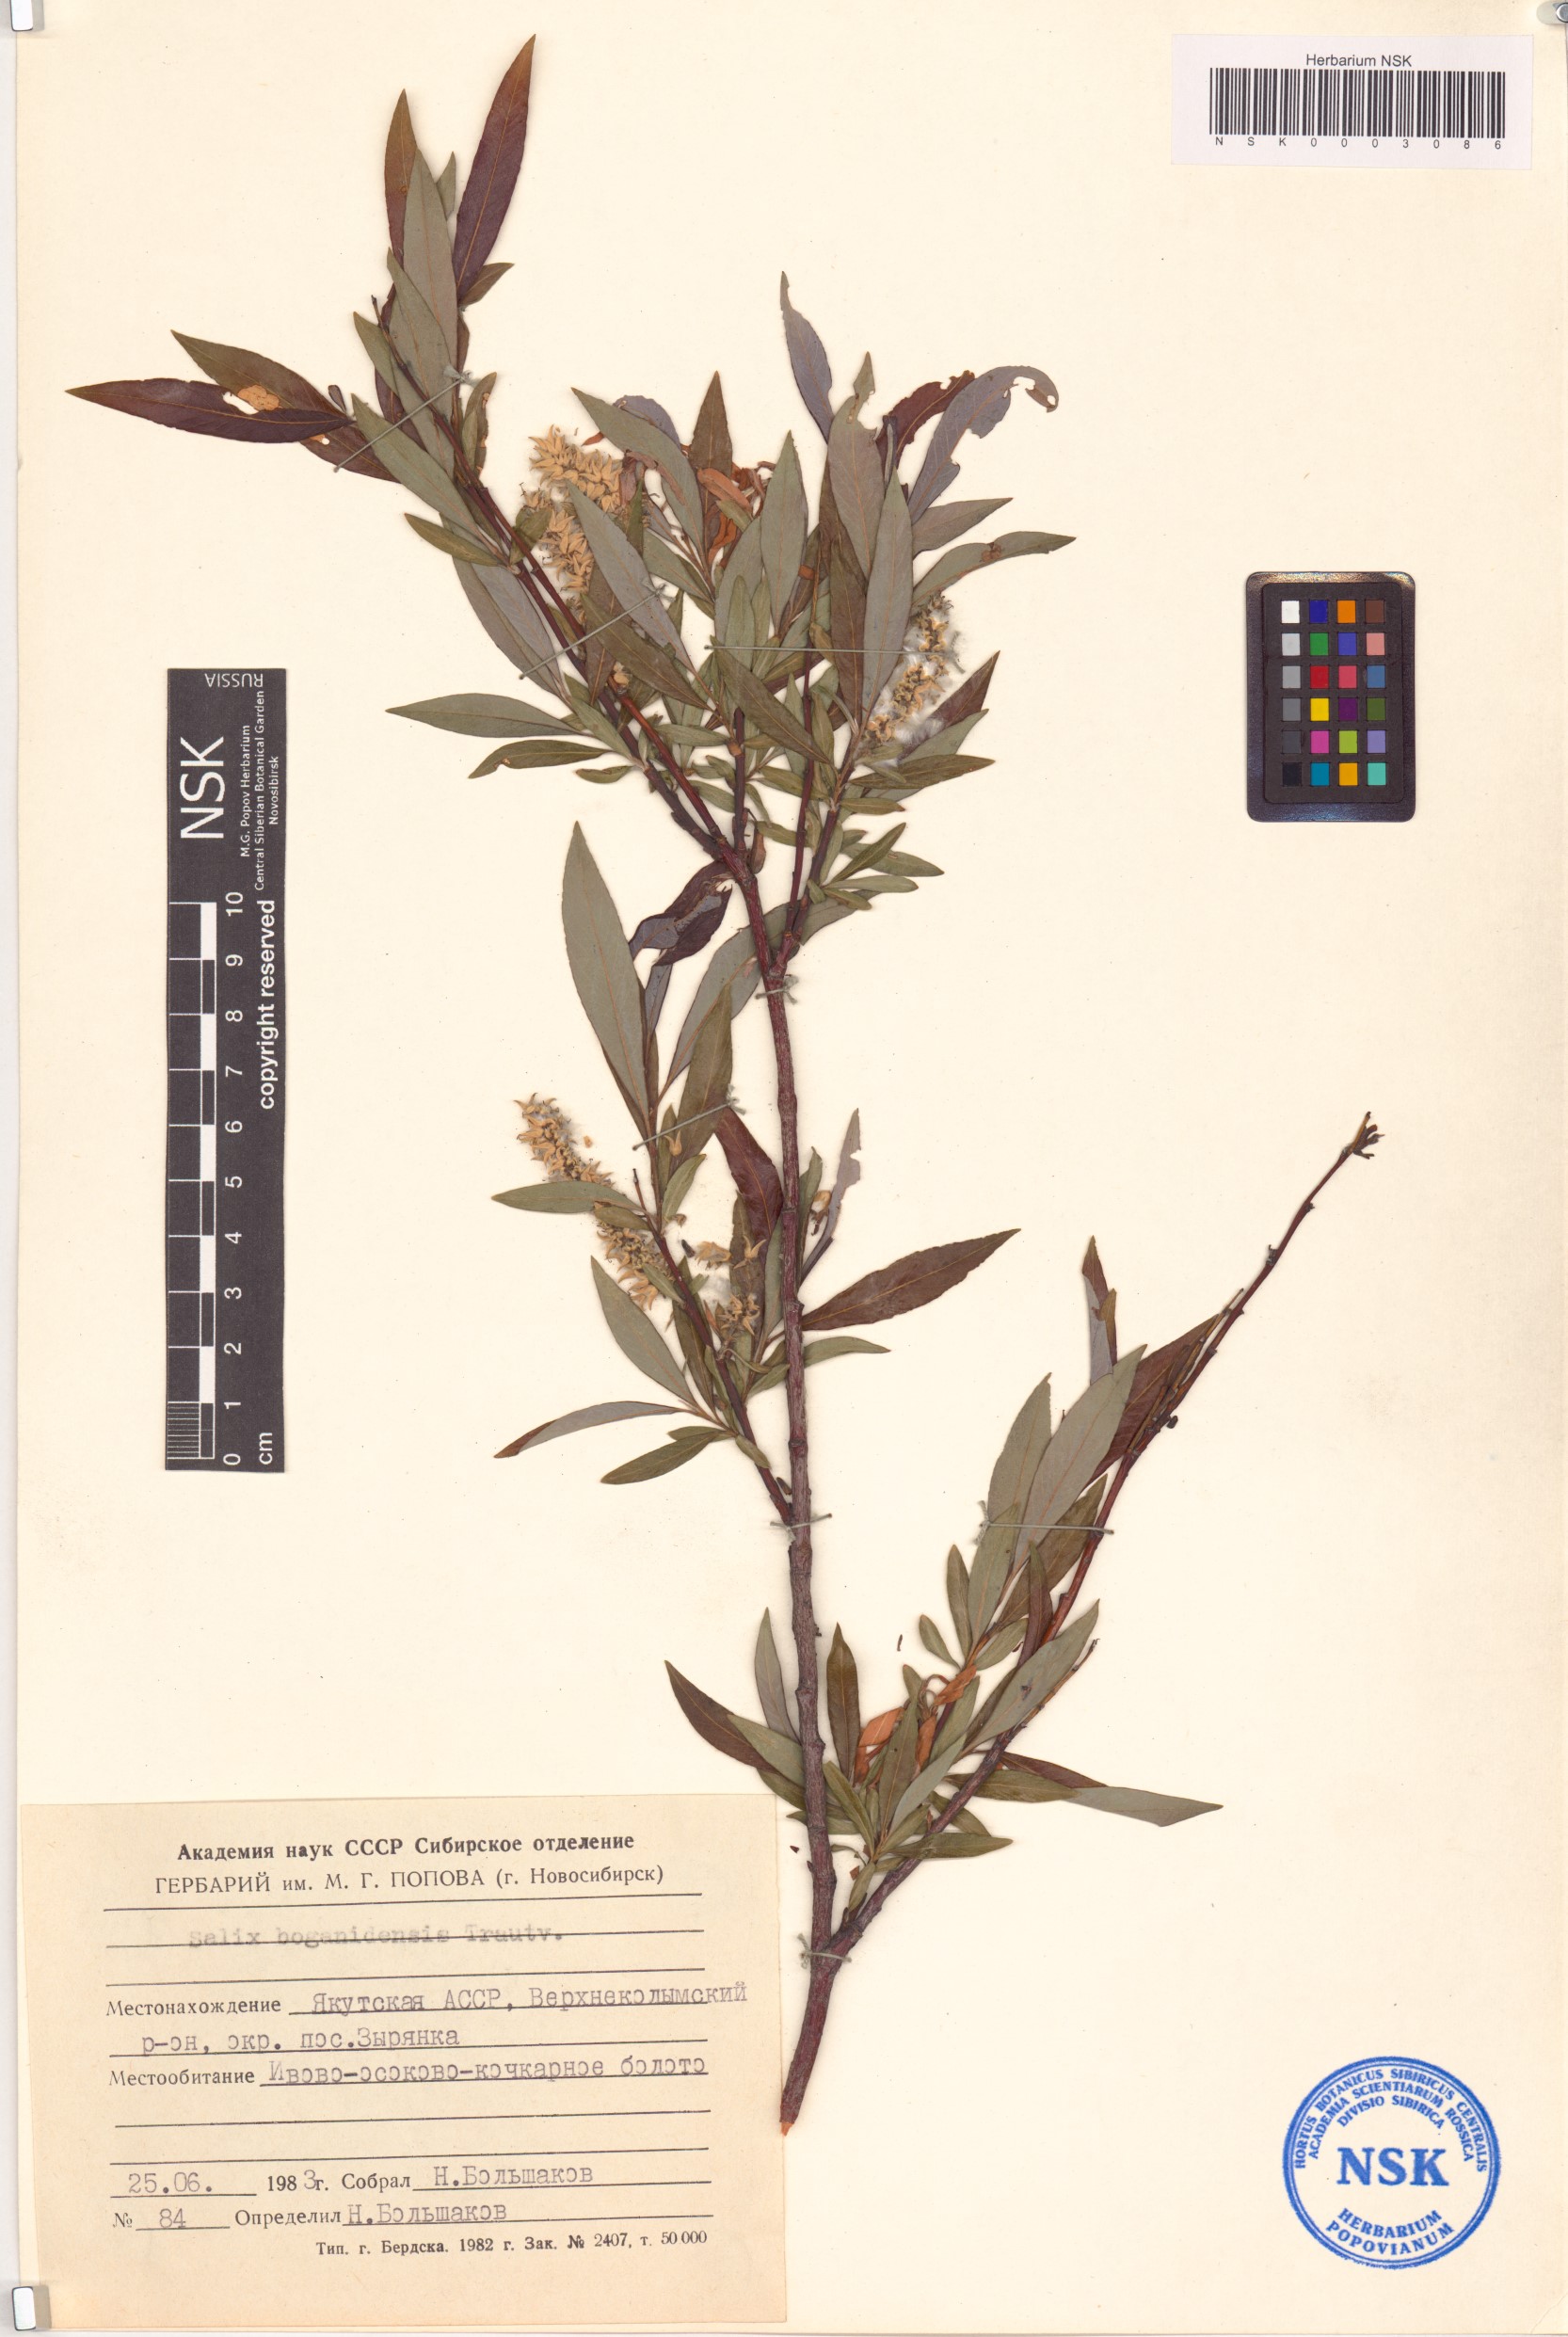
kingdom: Plantae
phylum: Tracheophyta
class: Magnoliopsida
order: Malpighiales
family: Salicaceae
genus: Salix
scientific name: Salix boganidensis
